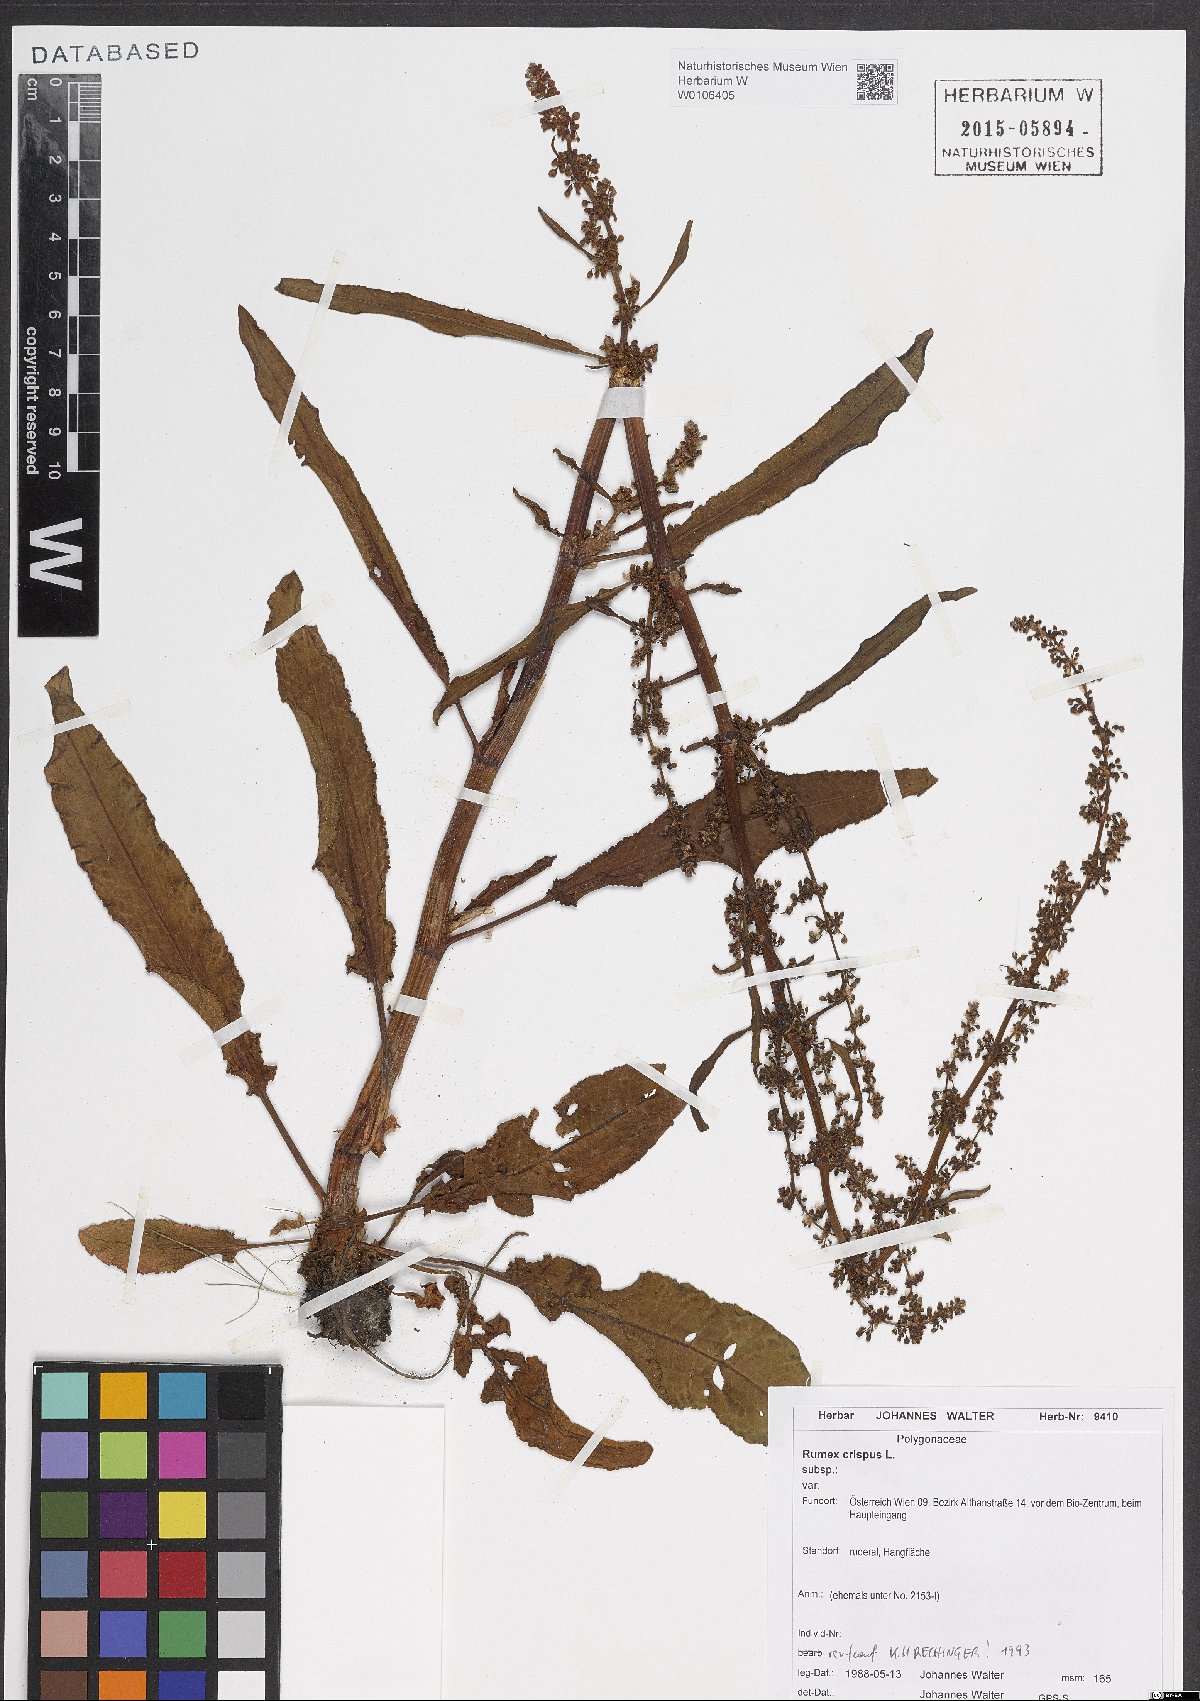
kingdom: Plantae
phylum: Tracheophyta
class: Magnoliopsida
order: Caryophyllales
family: Polygonaceae
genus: Rumex
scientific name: Rumex crispus
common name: Curled dock
